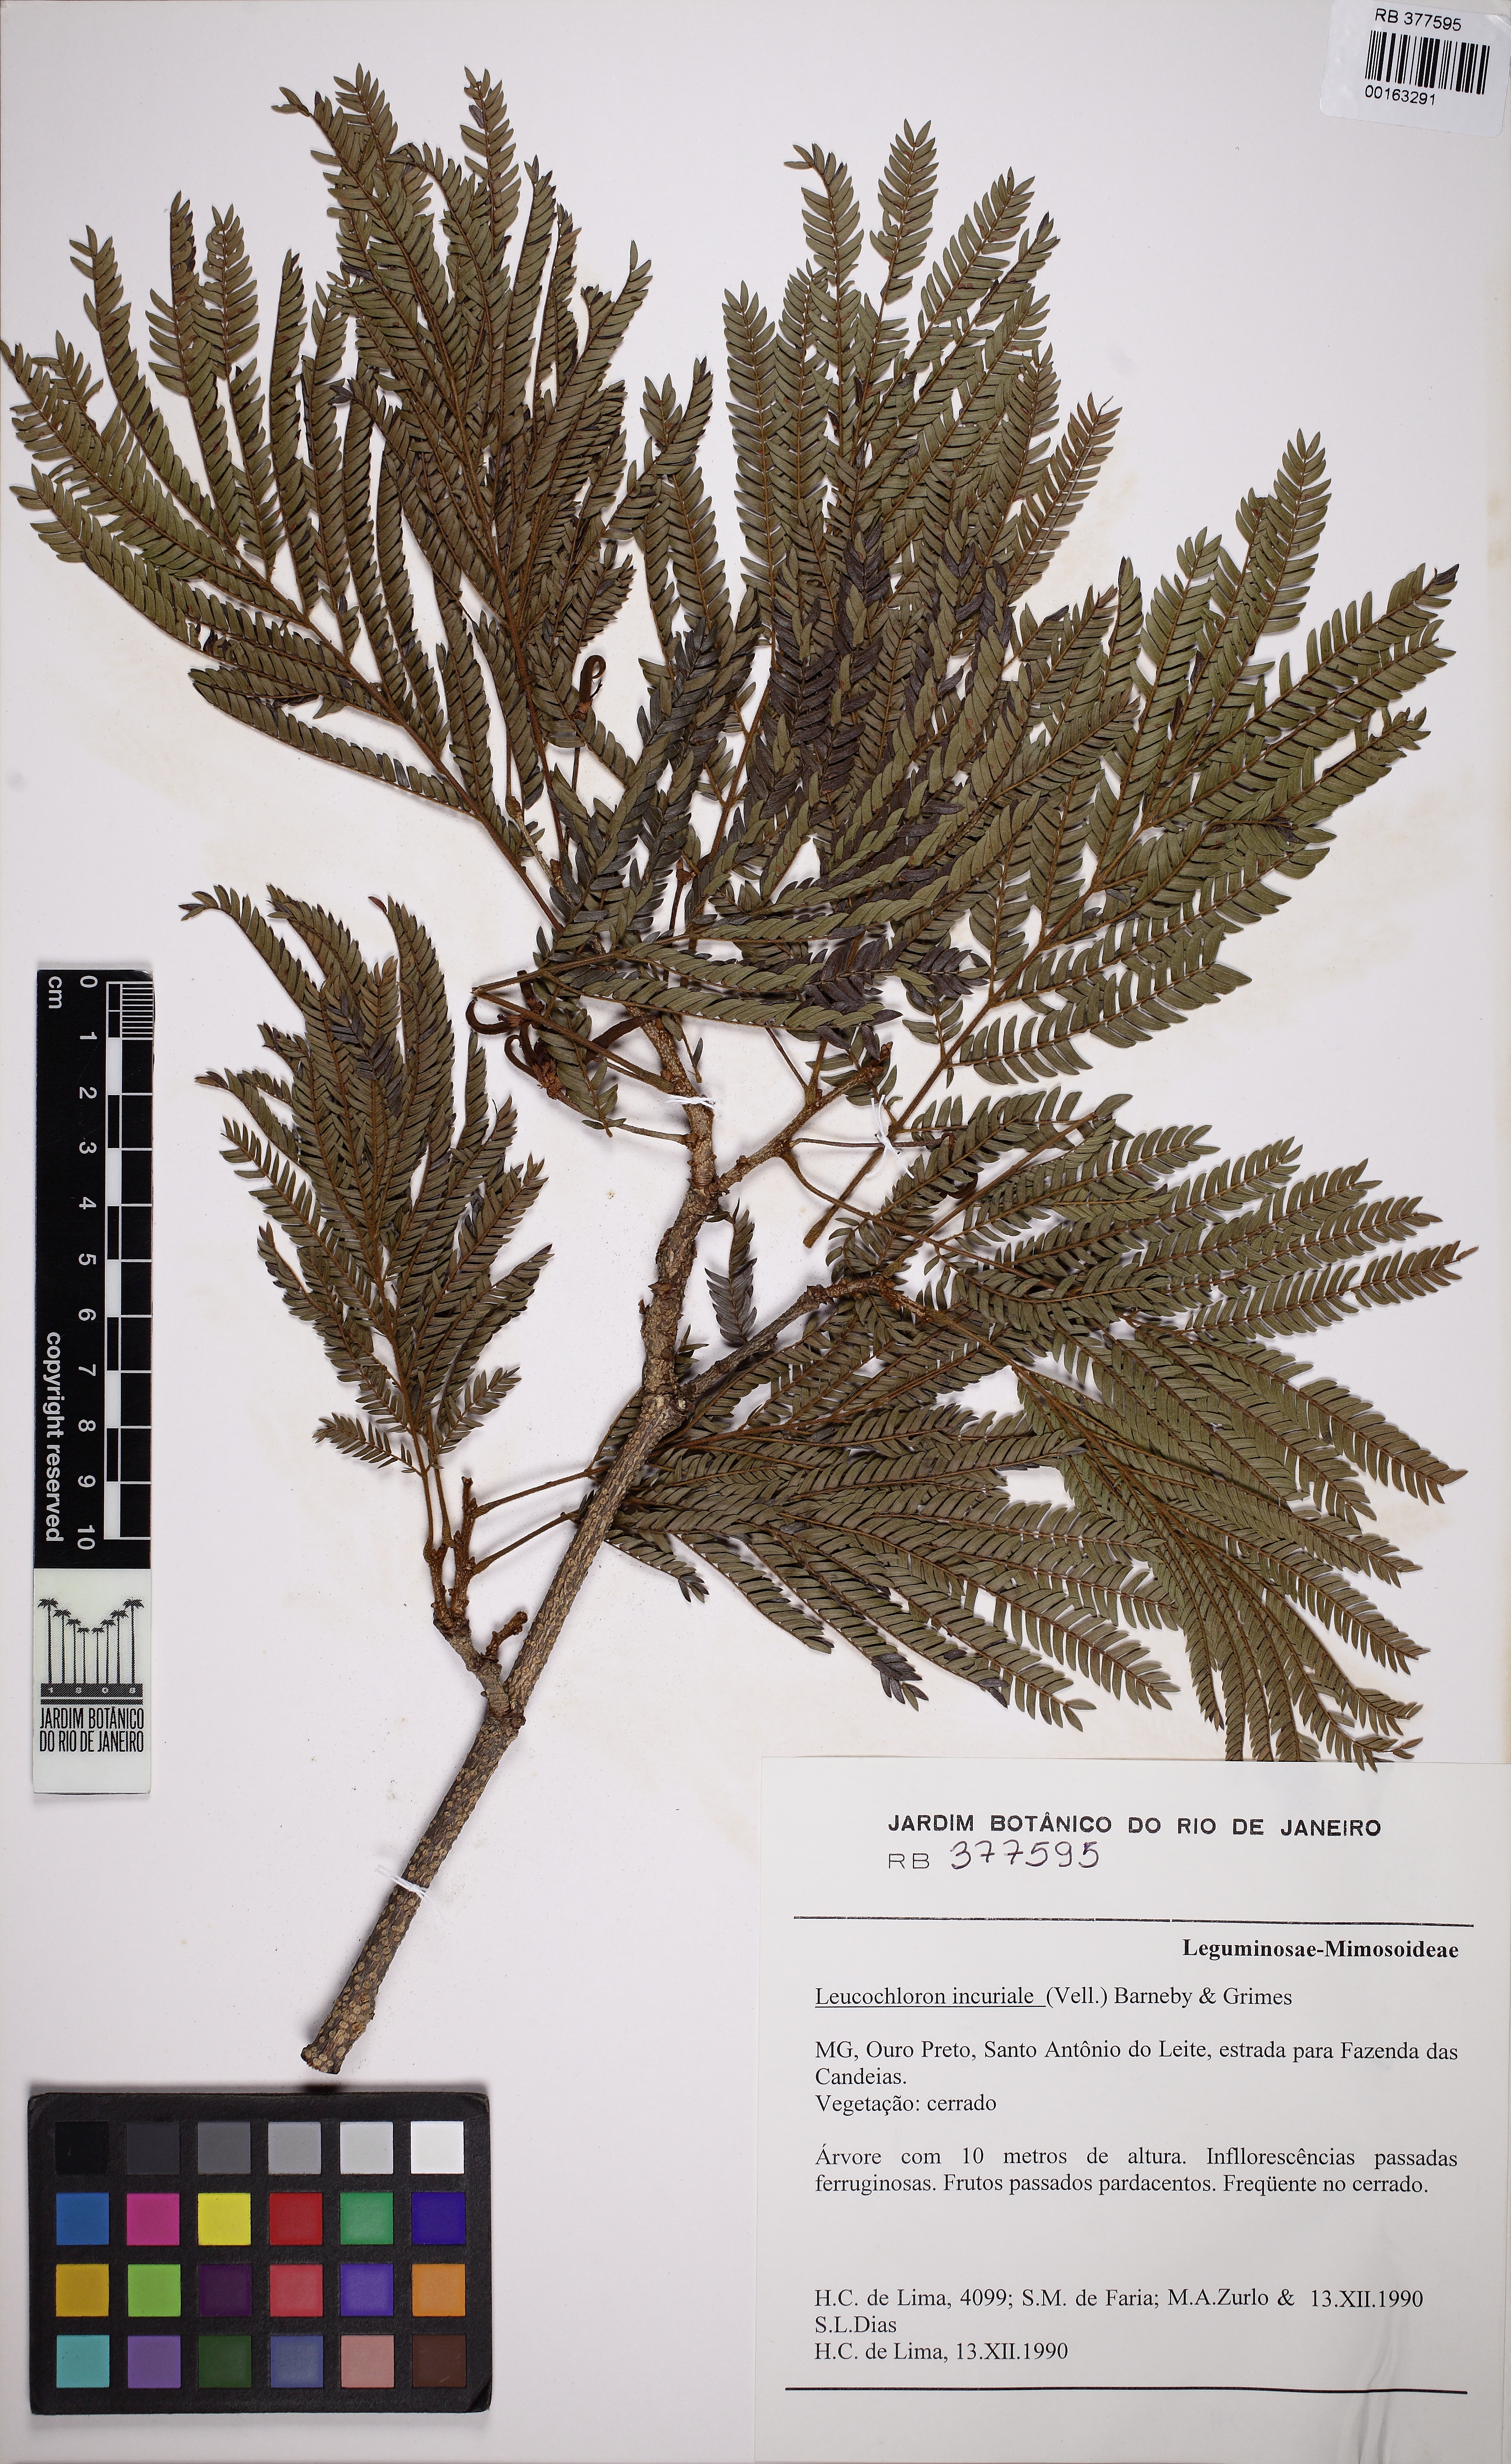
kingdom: Plantae
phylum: Tracheophyta
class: Magnoliopsida
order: Fabales
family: Fabaceae
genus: Leucochloron
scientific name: Leucochloron incuriale
